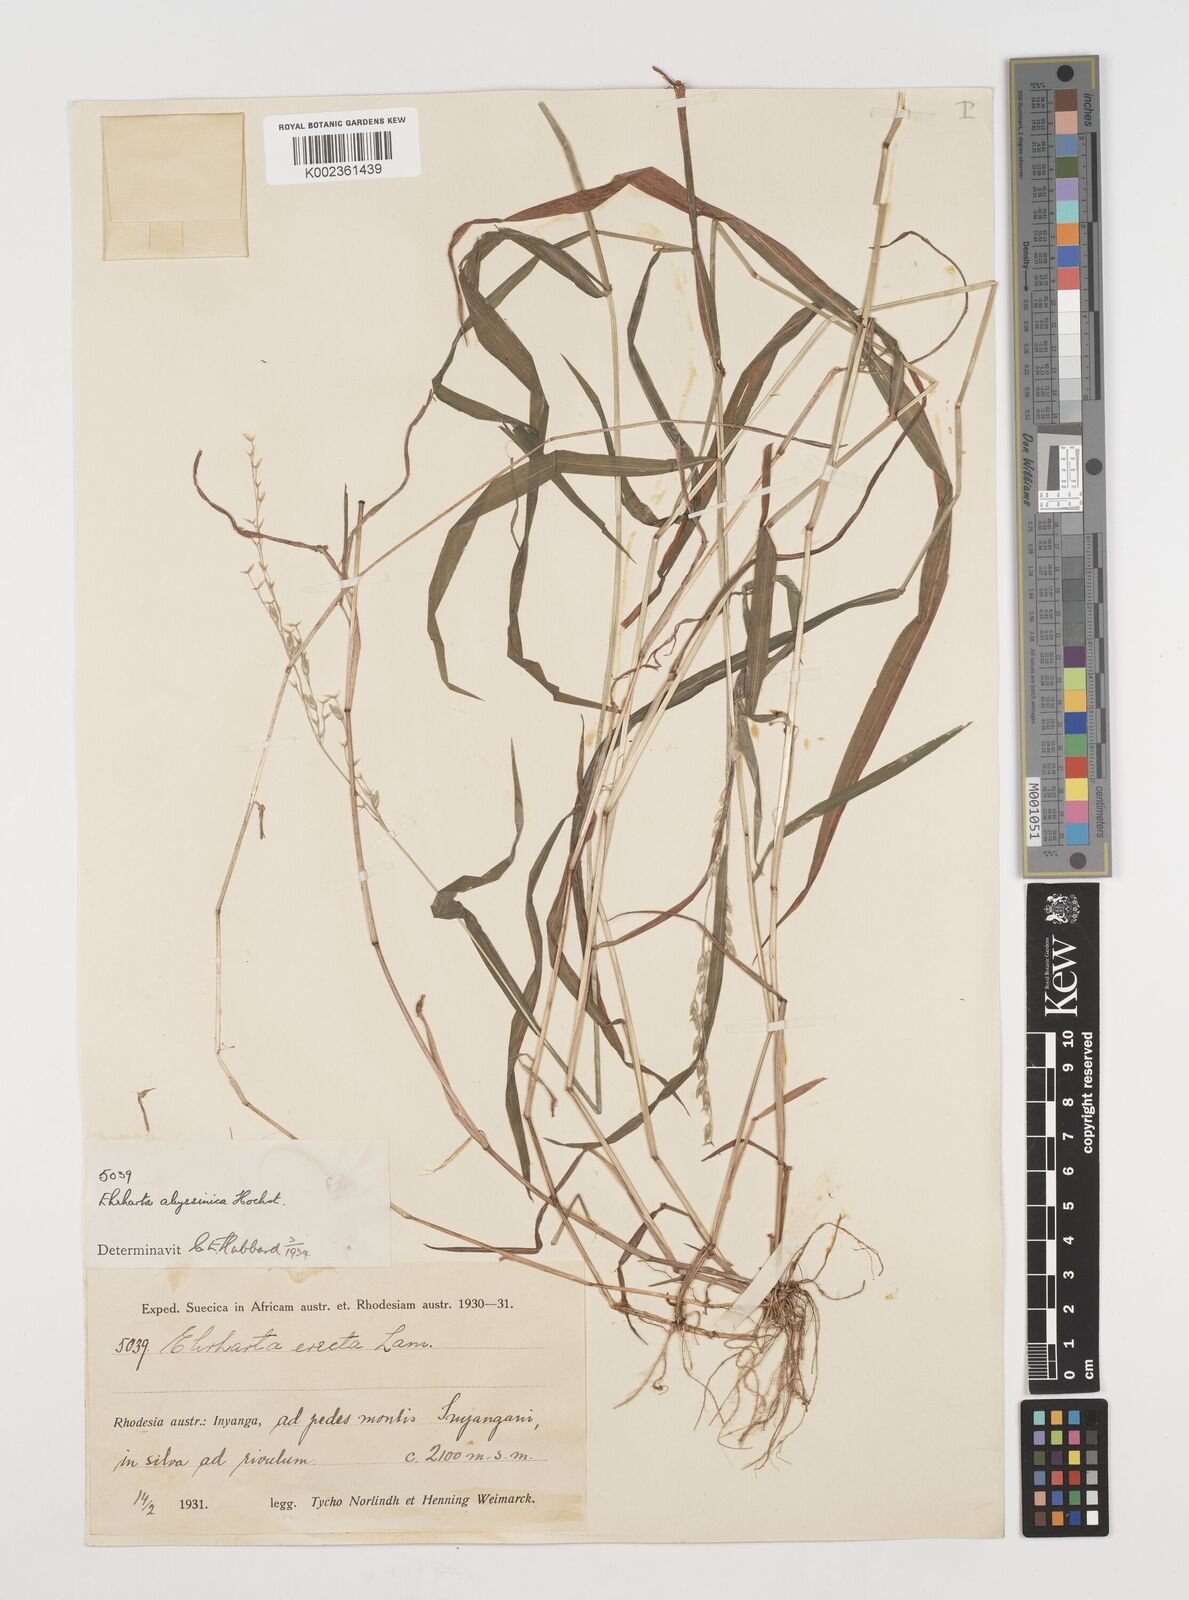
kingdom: Plantae
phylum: Tracheophyta
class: Liliopsida
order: Poales
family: Poaceae
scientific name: Poaceae
